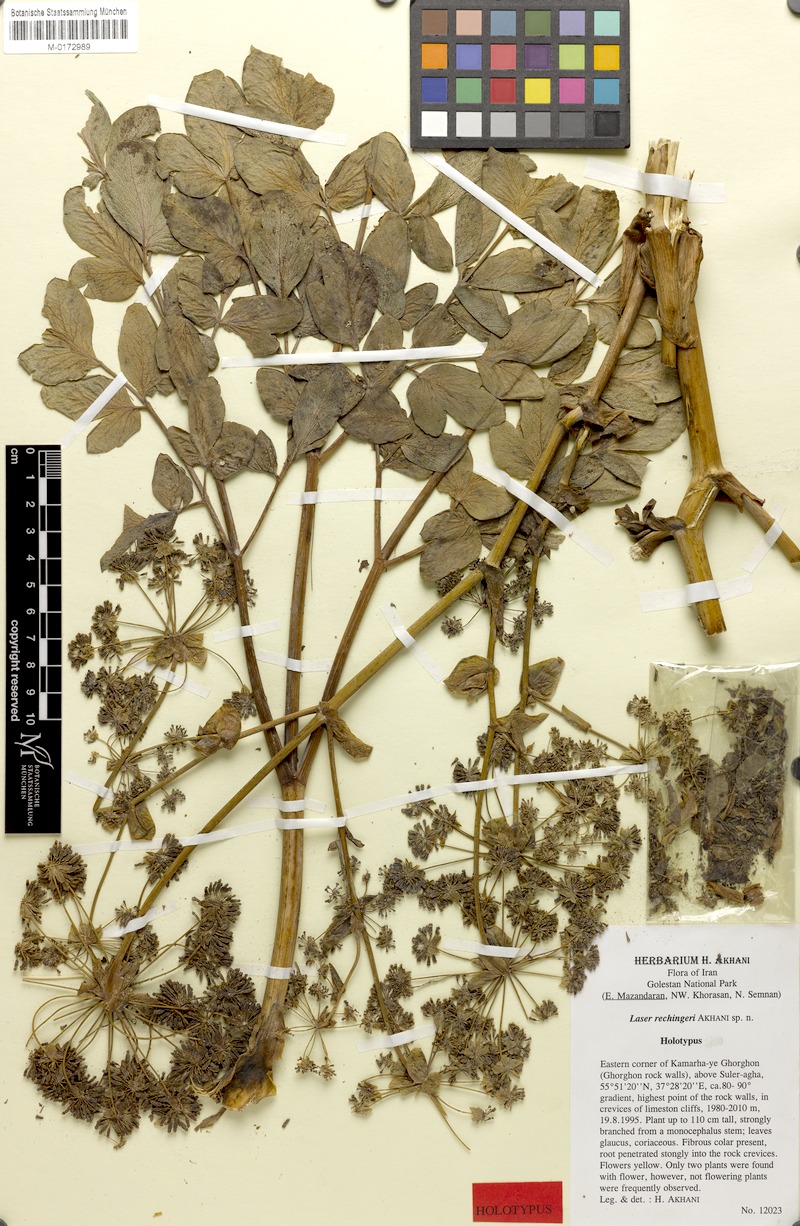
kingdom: Plantae
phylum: Tracheophyta
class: Magnoliopsida
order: Apiales
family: Apiaceae
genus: Ferula
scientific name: Ferula laseroides
